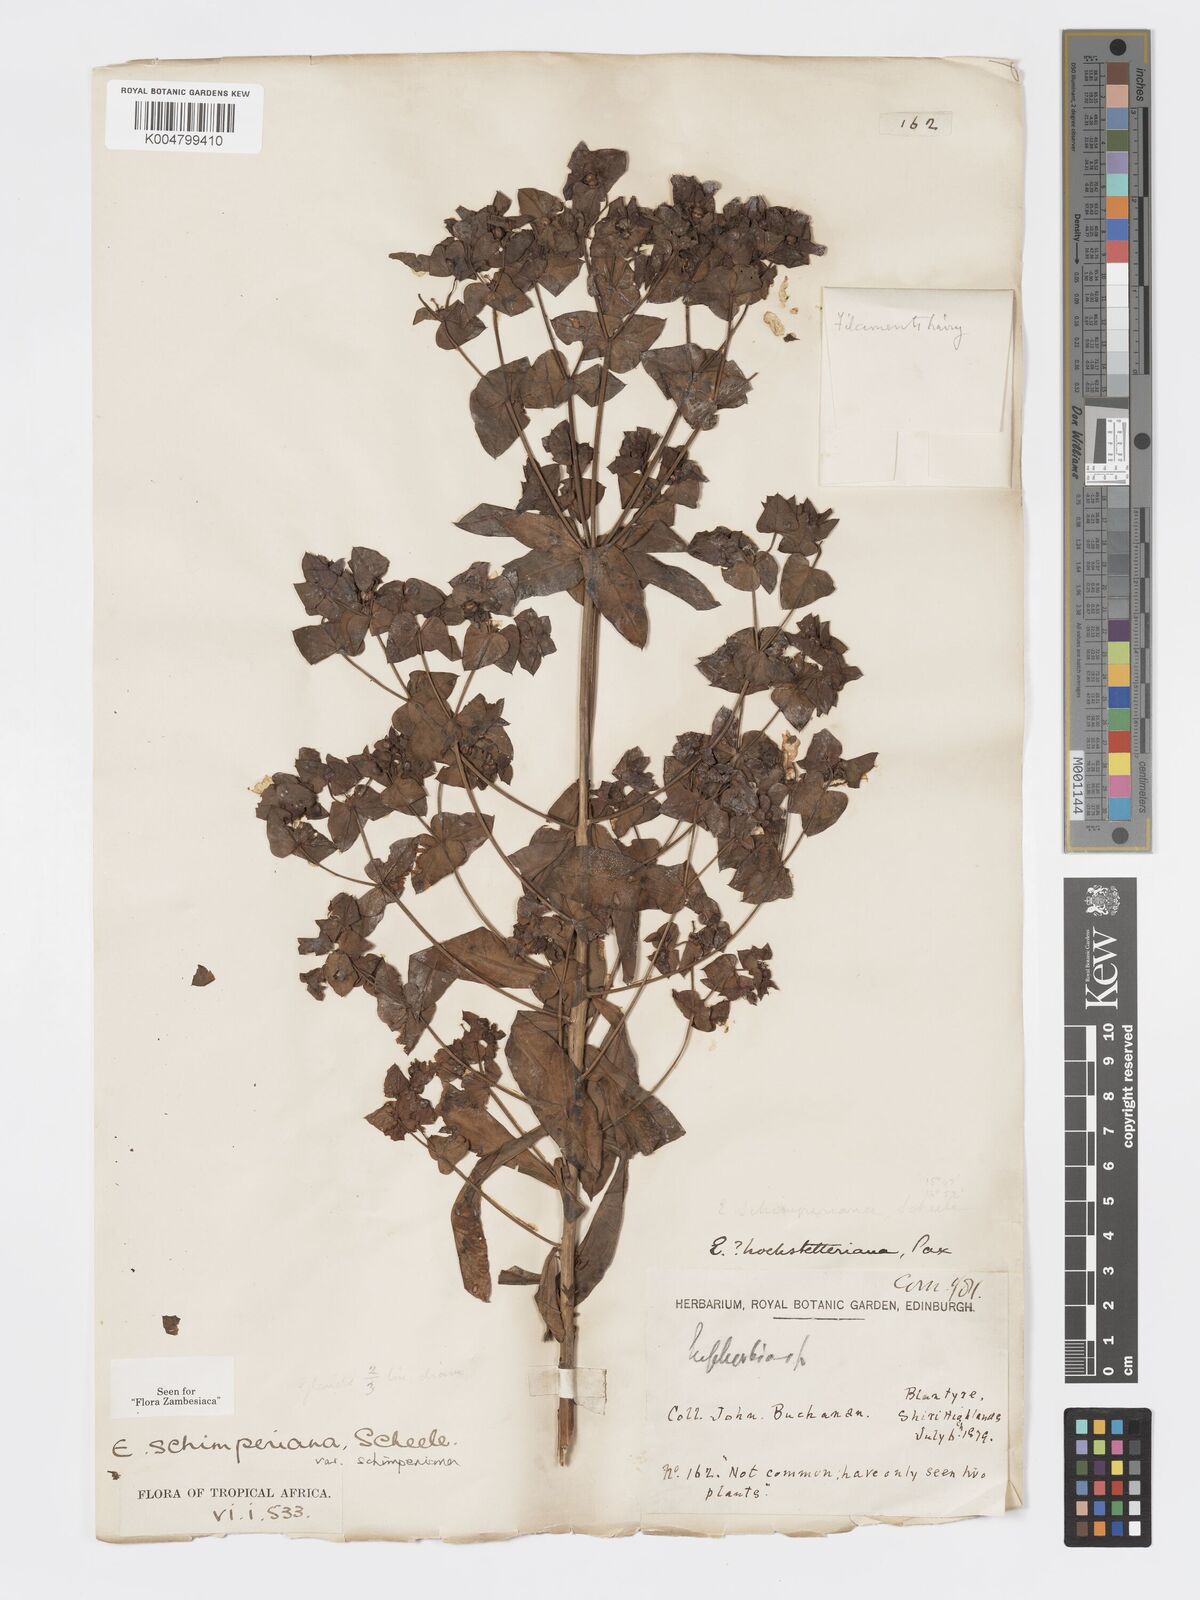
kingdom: Plantae
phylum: Tracheophyta
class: Magnoliopsida
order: Malpighiales
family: Euphorbiaceae
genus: Euphorbia
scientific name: Euphorbia schimperiana
